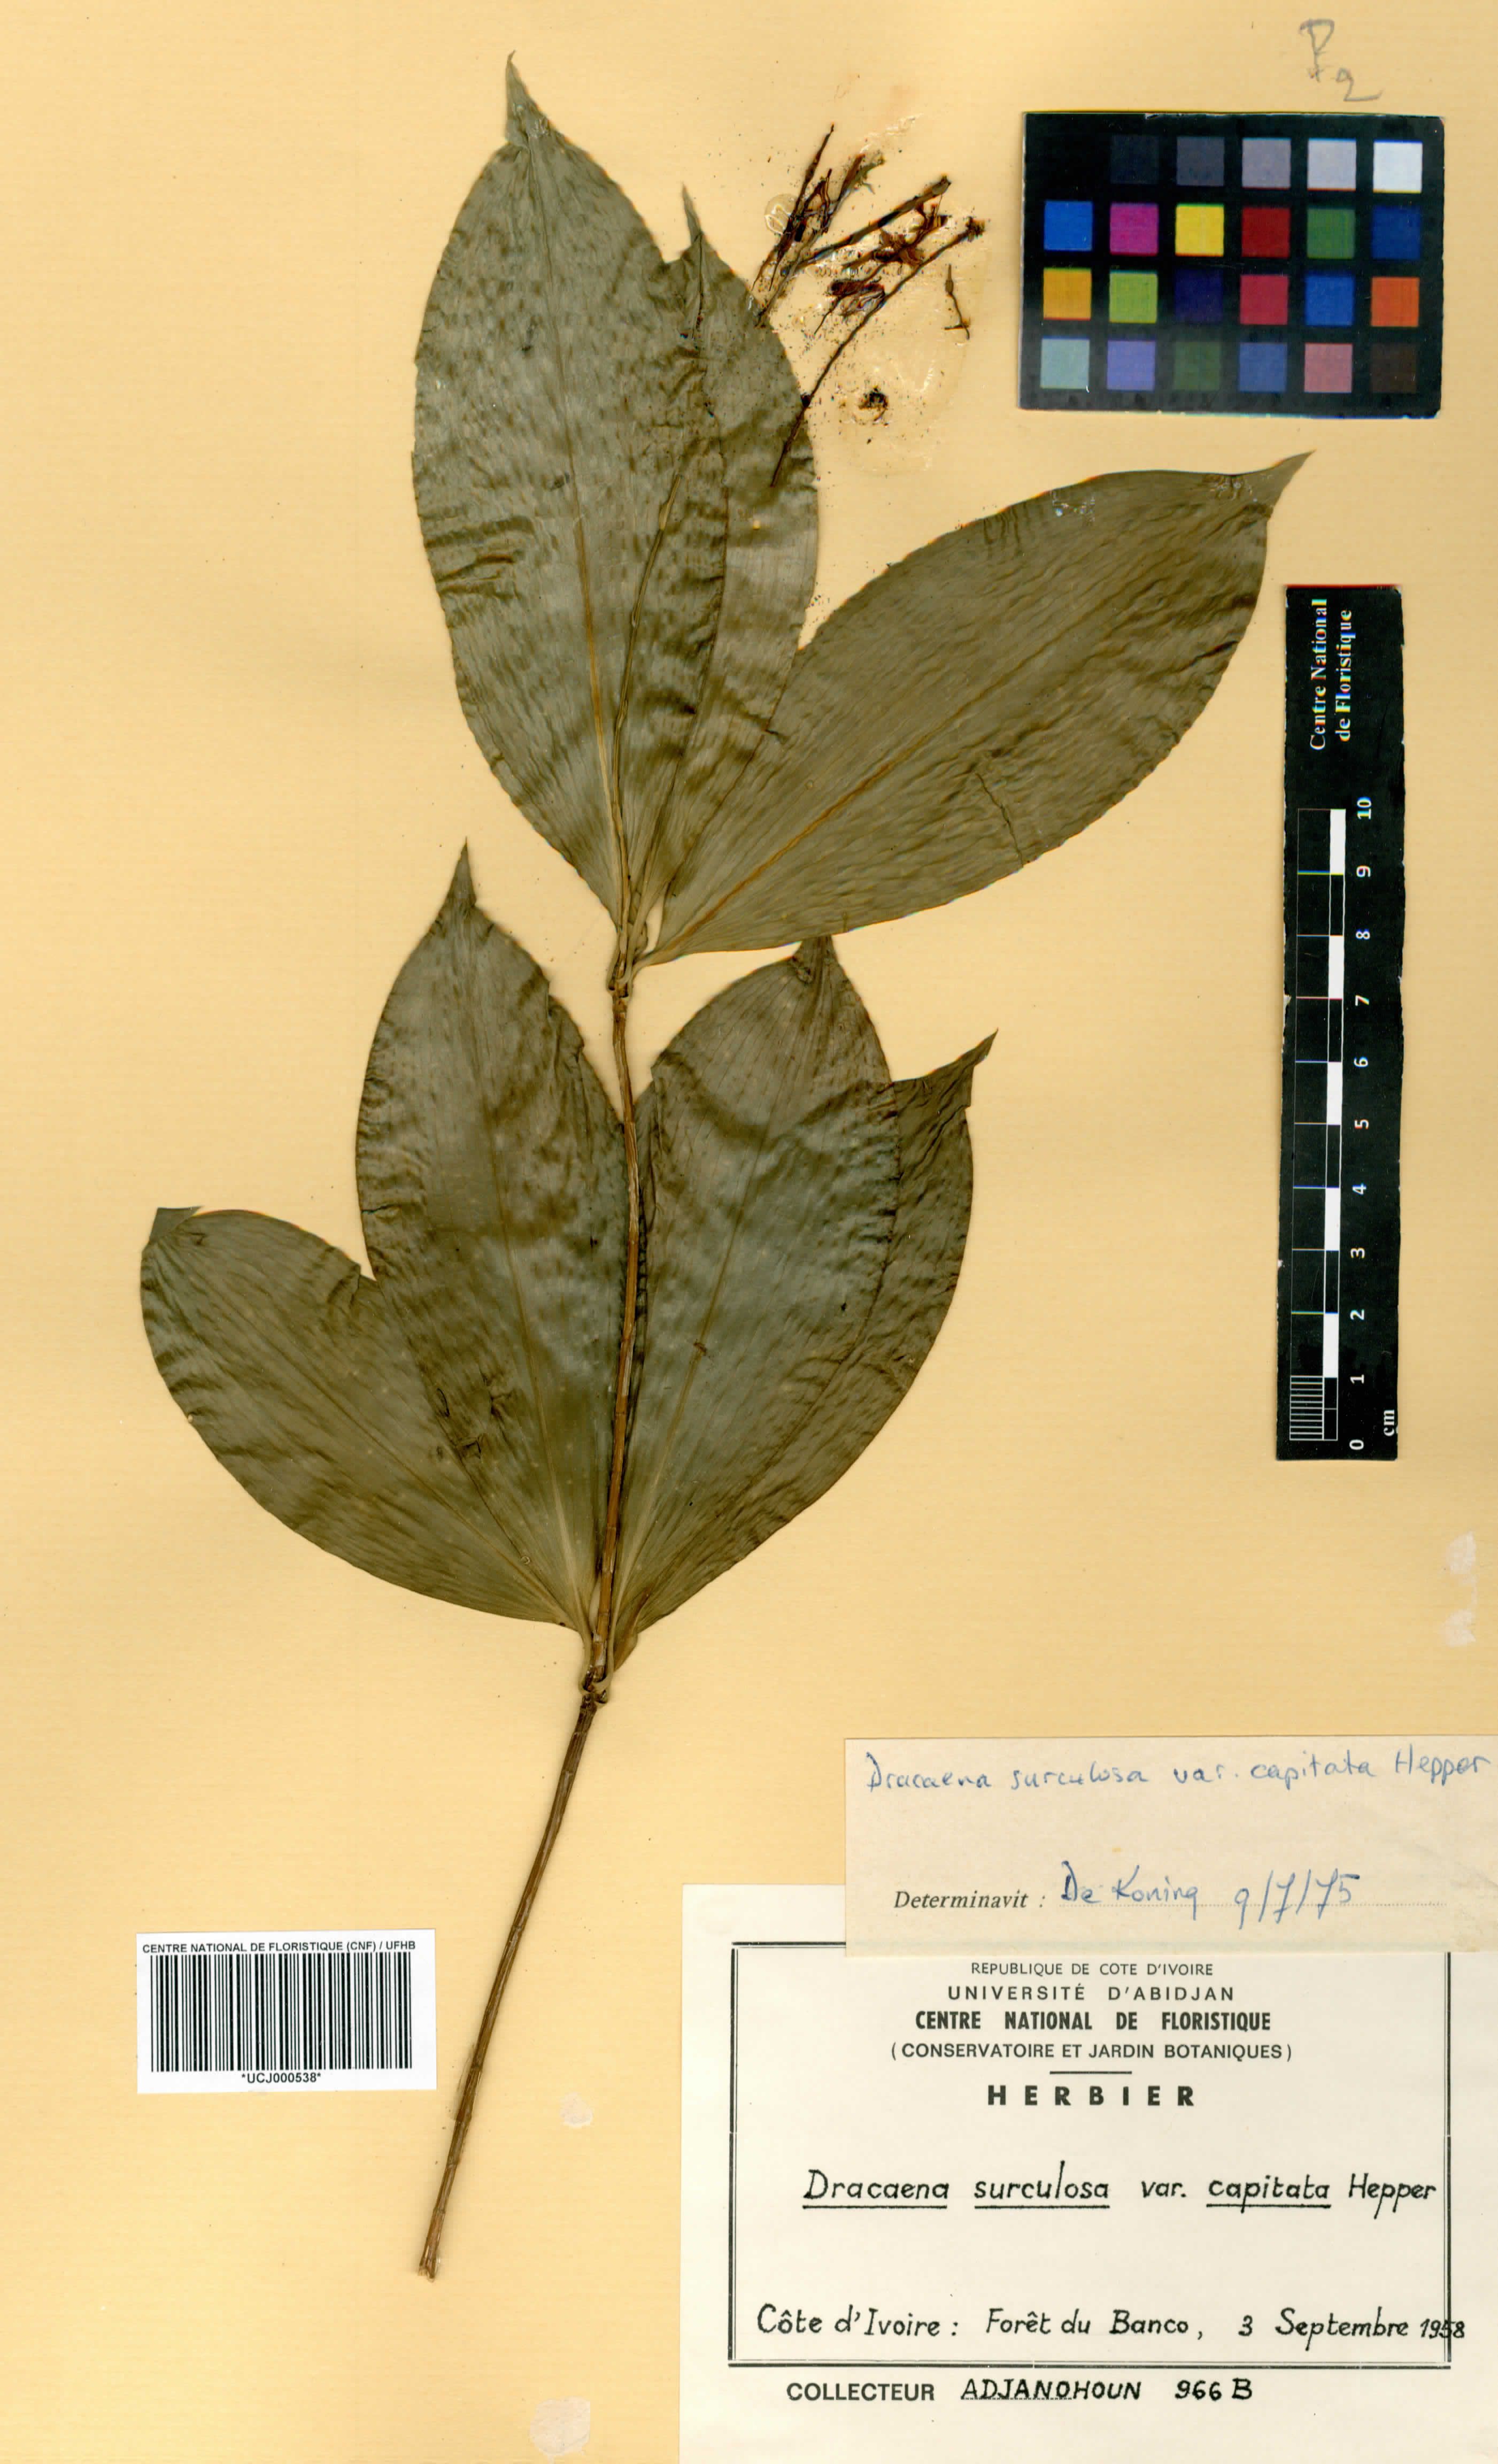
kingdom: Plantae
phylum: Tracheophyta
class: Liliopsida
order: Asparagales
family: Asparagaceae
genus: Dracaena
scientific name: Dracaena surculosa
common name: Spotted dracaena
